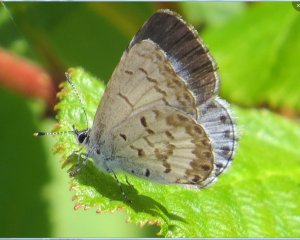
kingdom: Animalia
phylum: Arthropoda
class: Insecta
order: Lepidoptera
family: Lycaenidae
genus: Celastrina
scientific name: Celastrina serotina
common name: Cherry Gall Azure
